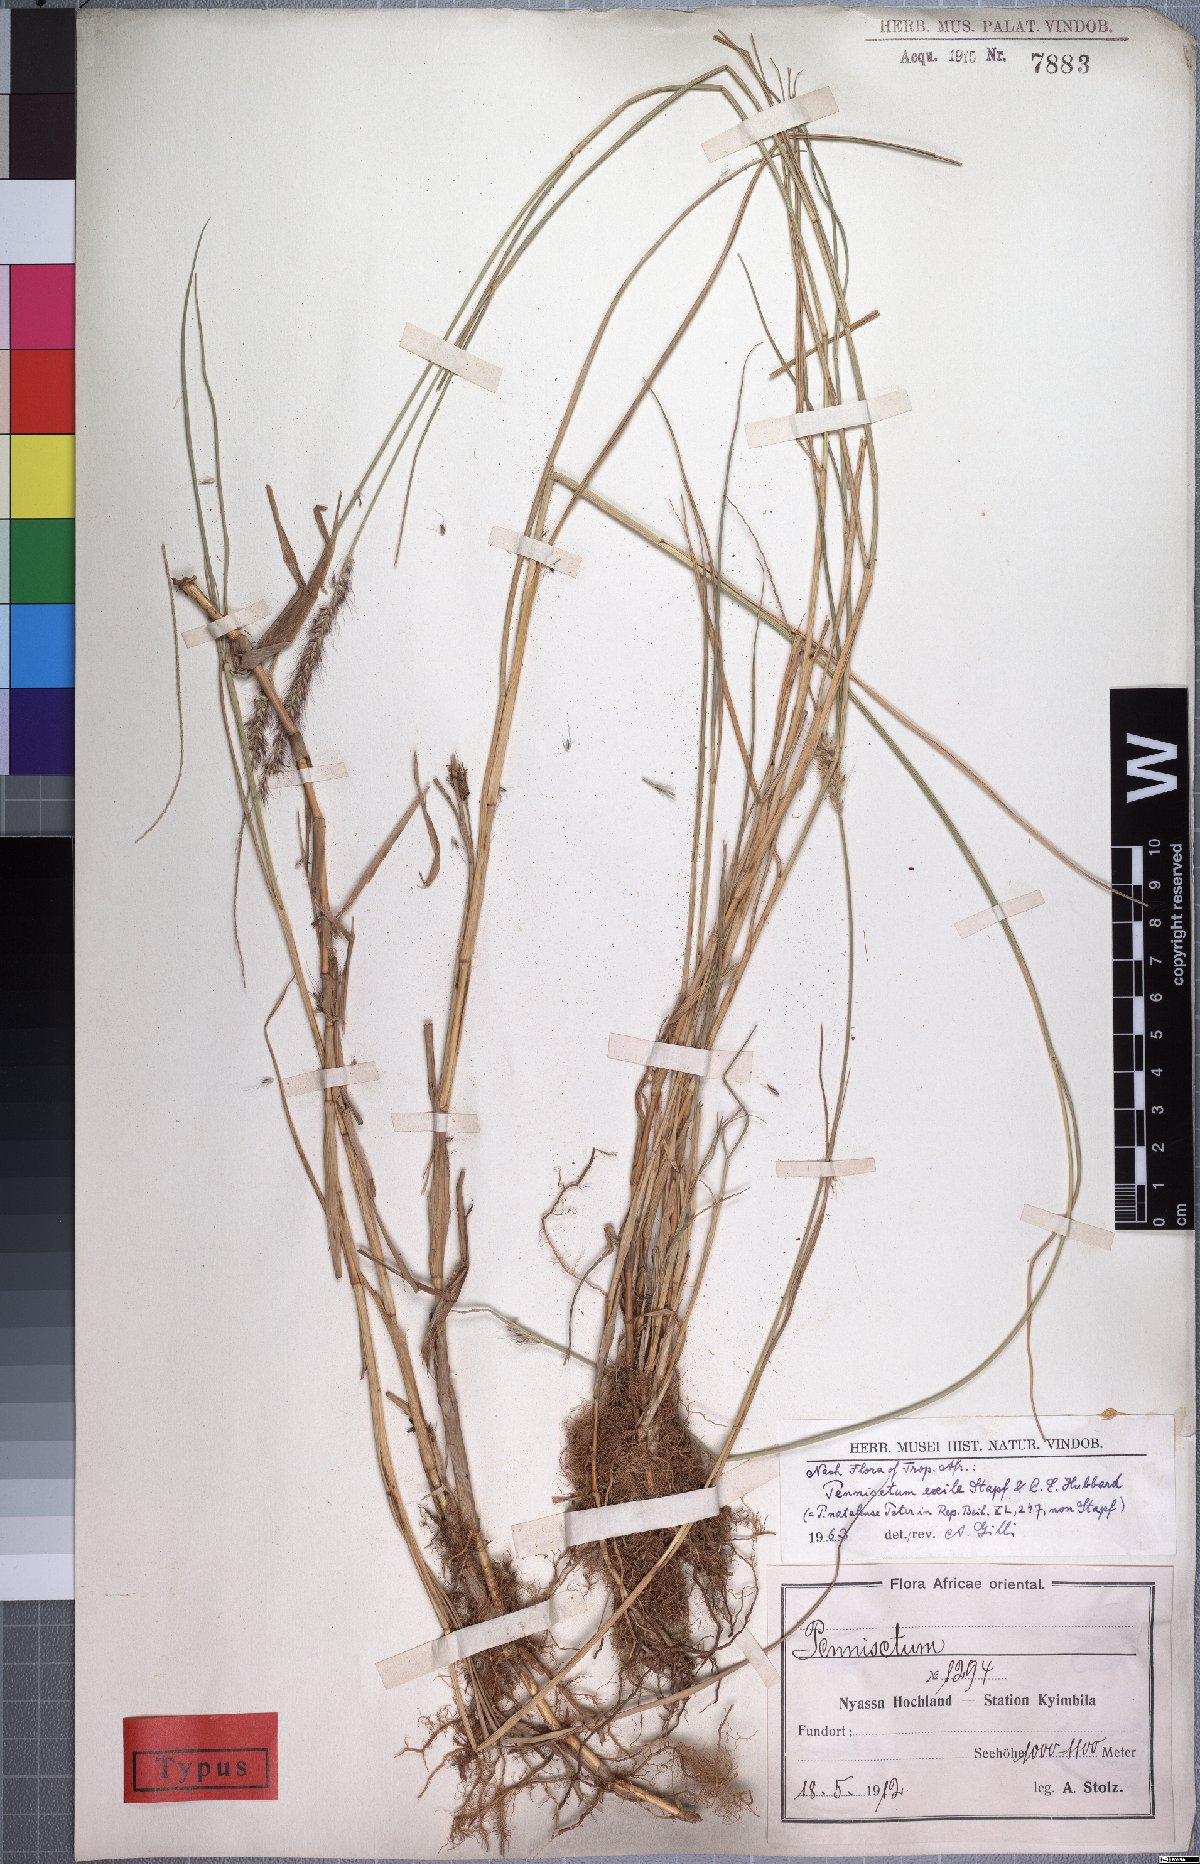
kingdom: Plantae
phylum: Tracheophyta
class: Liliopsida
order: Poales
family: Poaceae
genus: Cenchrus
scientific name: Cenchrus caudatus
